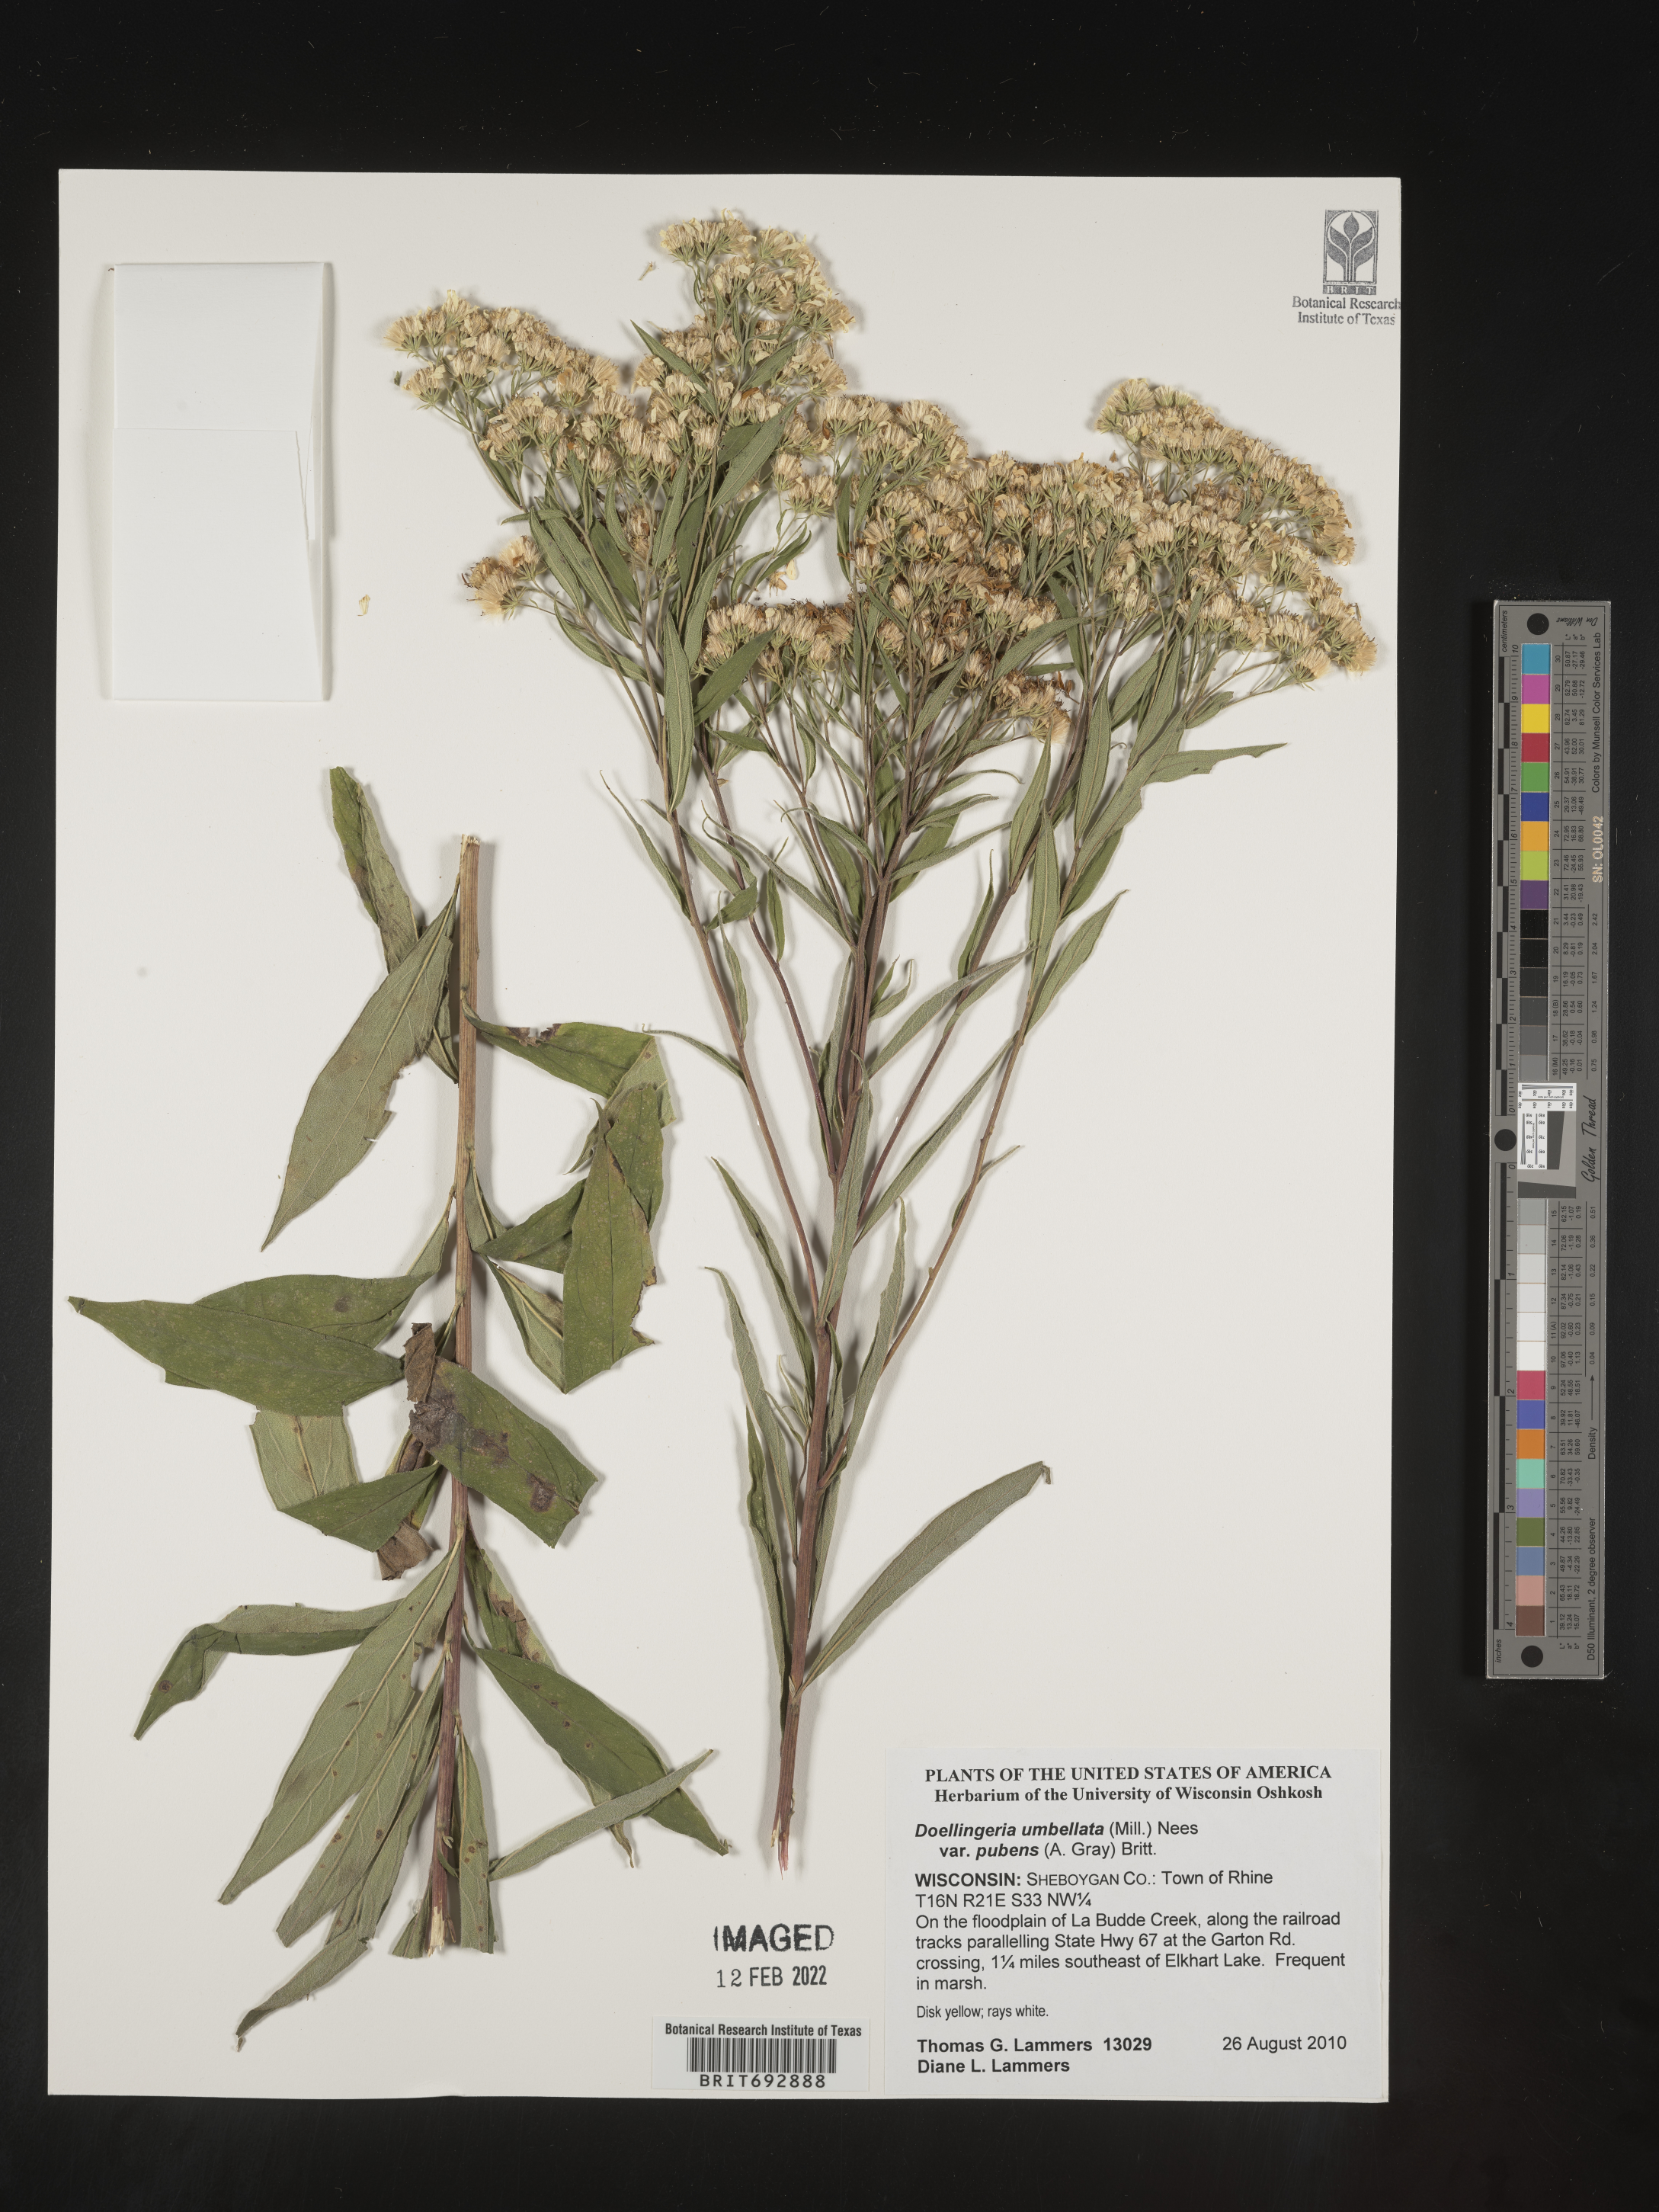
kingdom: Plantae
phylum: Tracheophyta
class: Magnoliopsida
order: Asterales
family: Asteraceae
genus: Doellingeria
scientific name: Doellingeria umbellata
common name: Flat-top white aster
